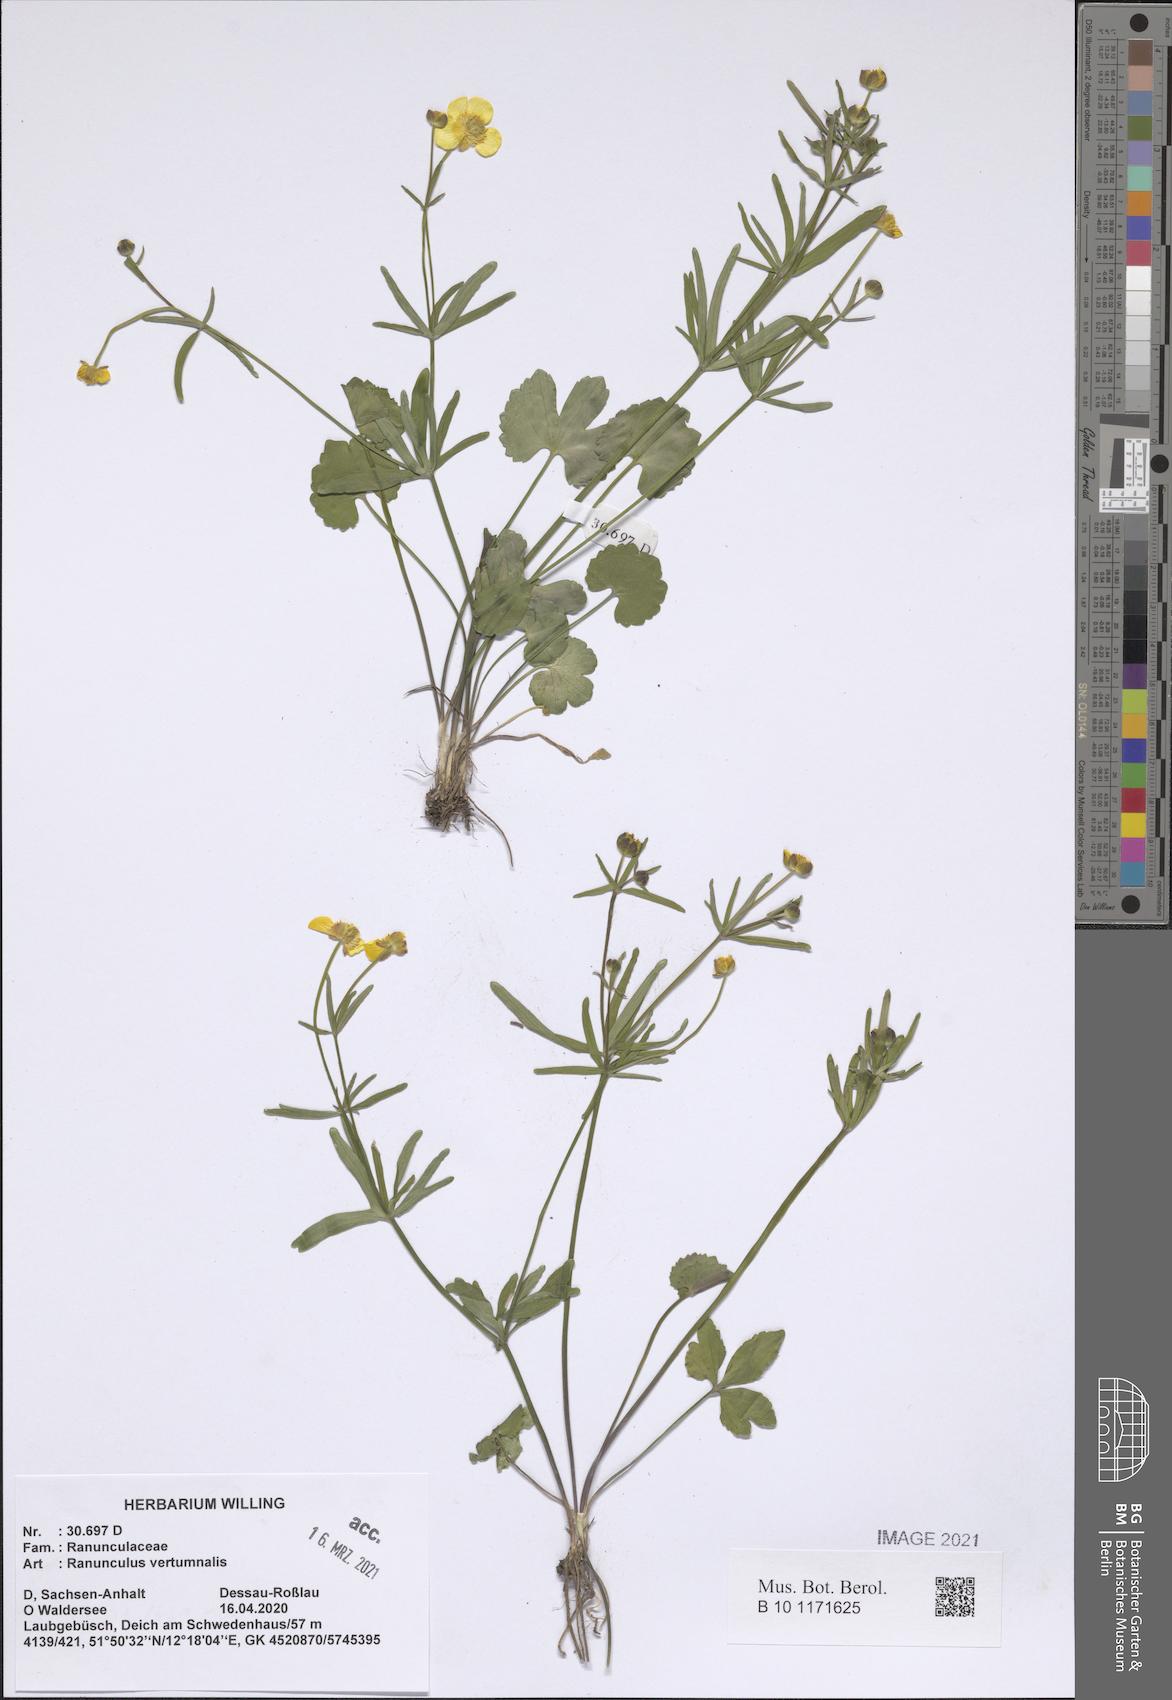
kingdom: Plantae
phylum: Tracheophyta
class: Magnoliopsida
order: Ranunculales
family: Ranunculaceae
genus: Ranunculus
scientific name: Ranunculus vertumnalis
